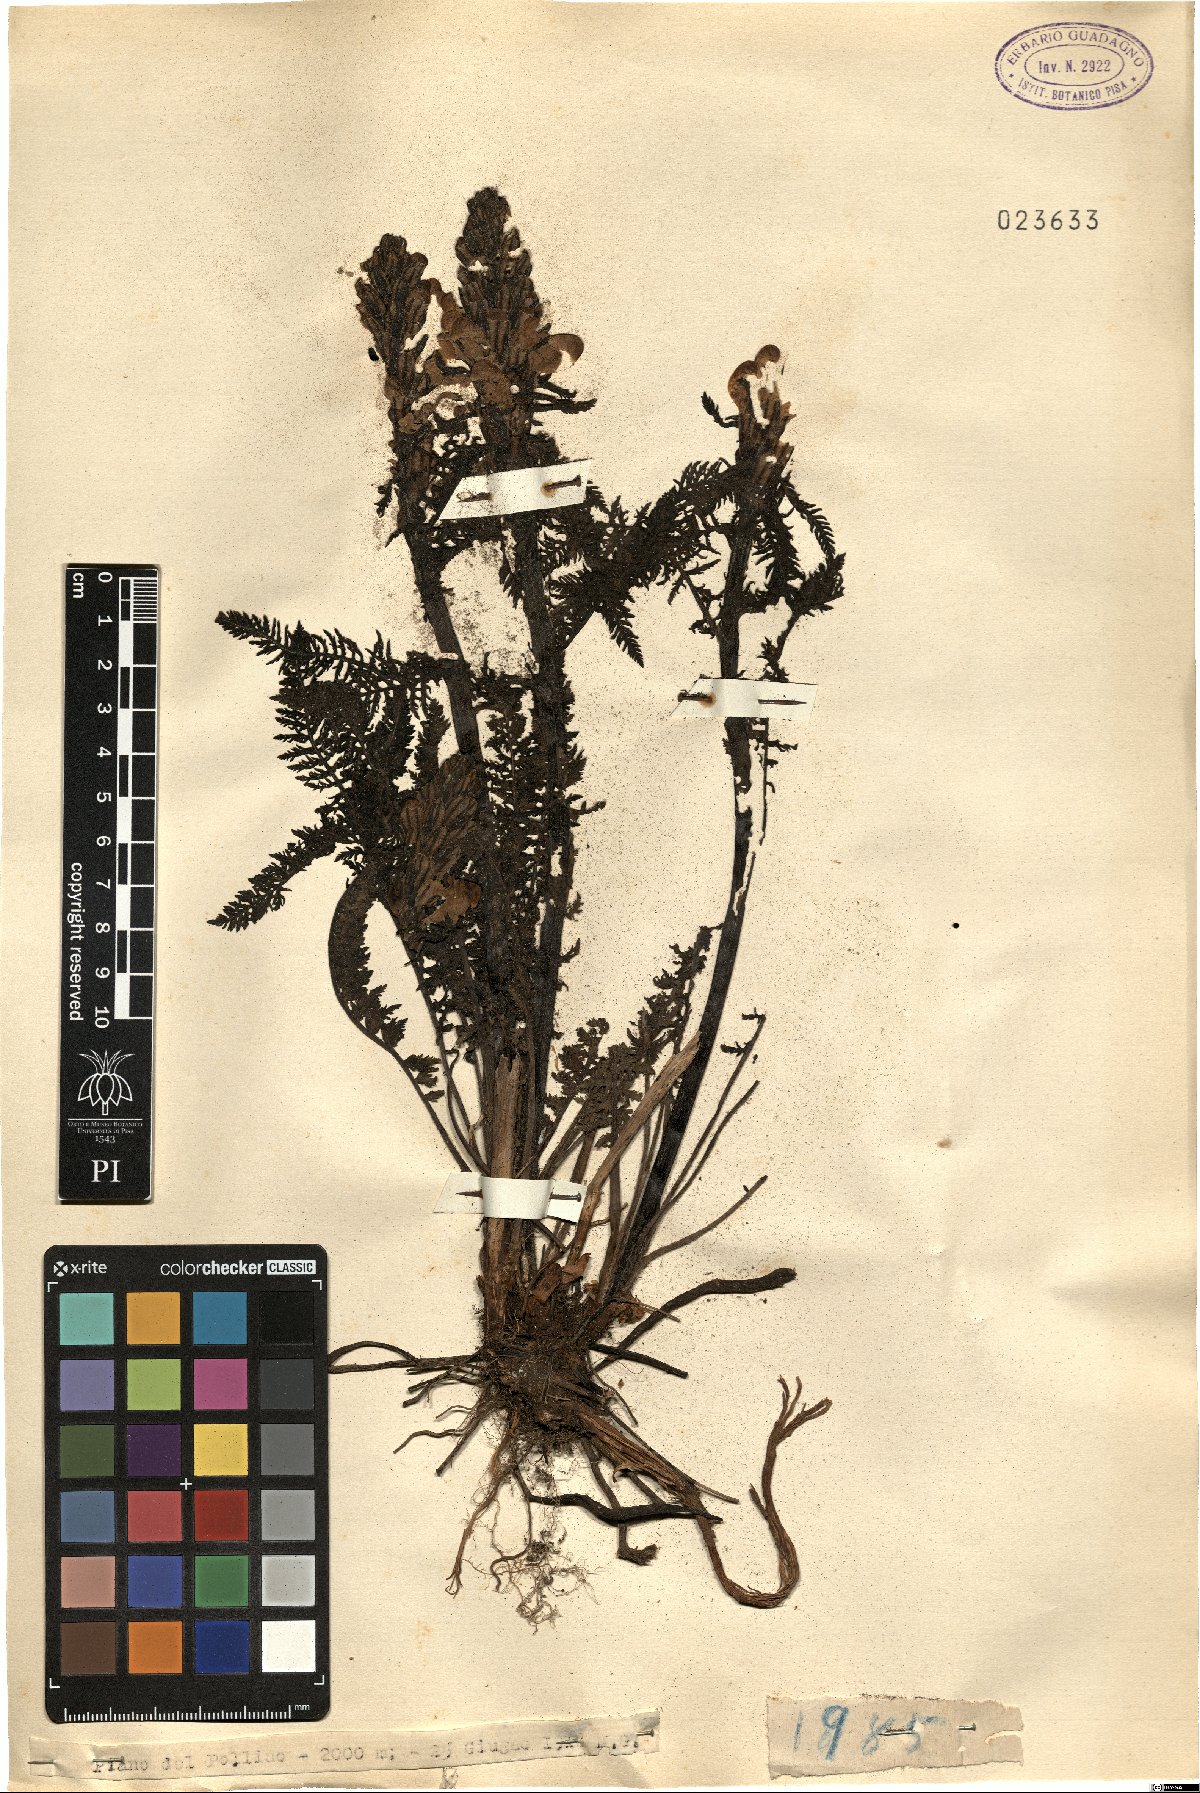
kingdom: Plantae
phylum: Tracheophyta
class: Magnoliopsida
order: Lamiales
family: Orobanchaceae
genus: Pedicularis
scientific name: Pedicularis
